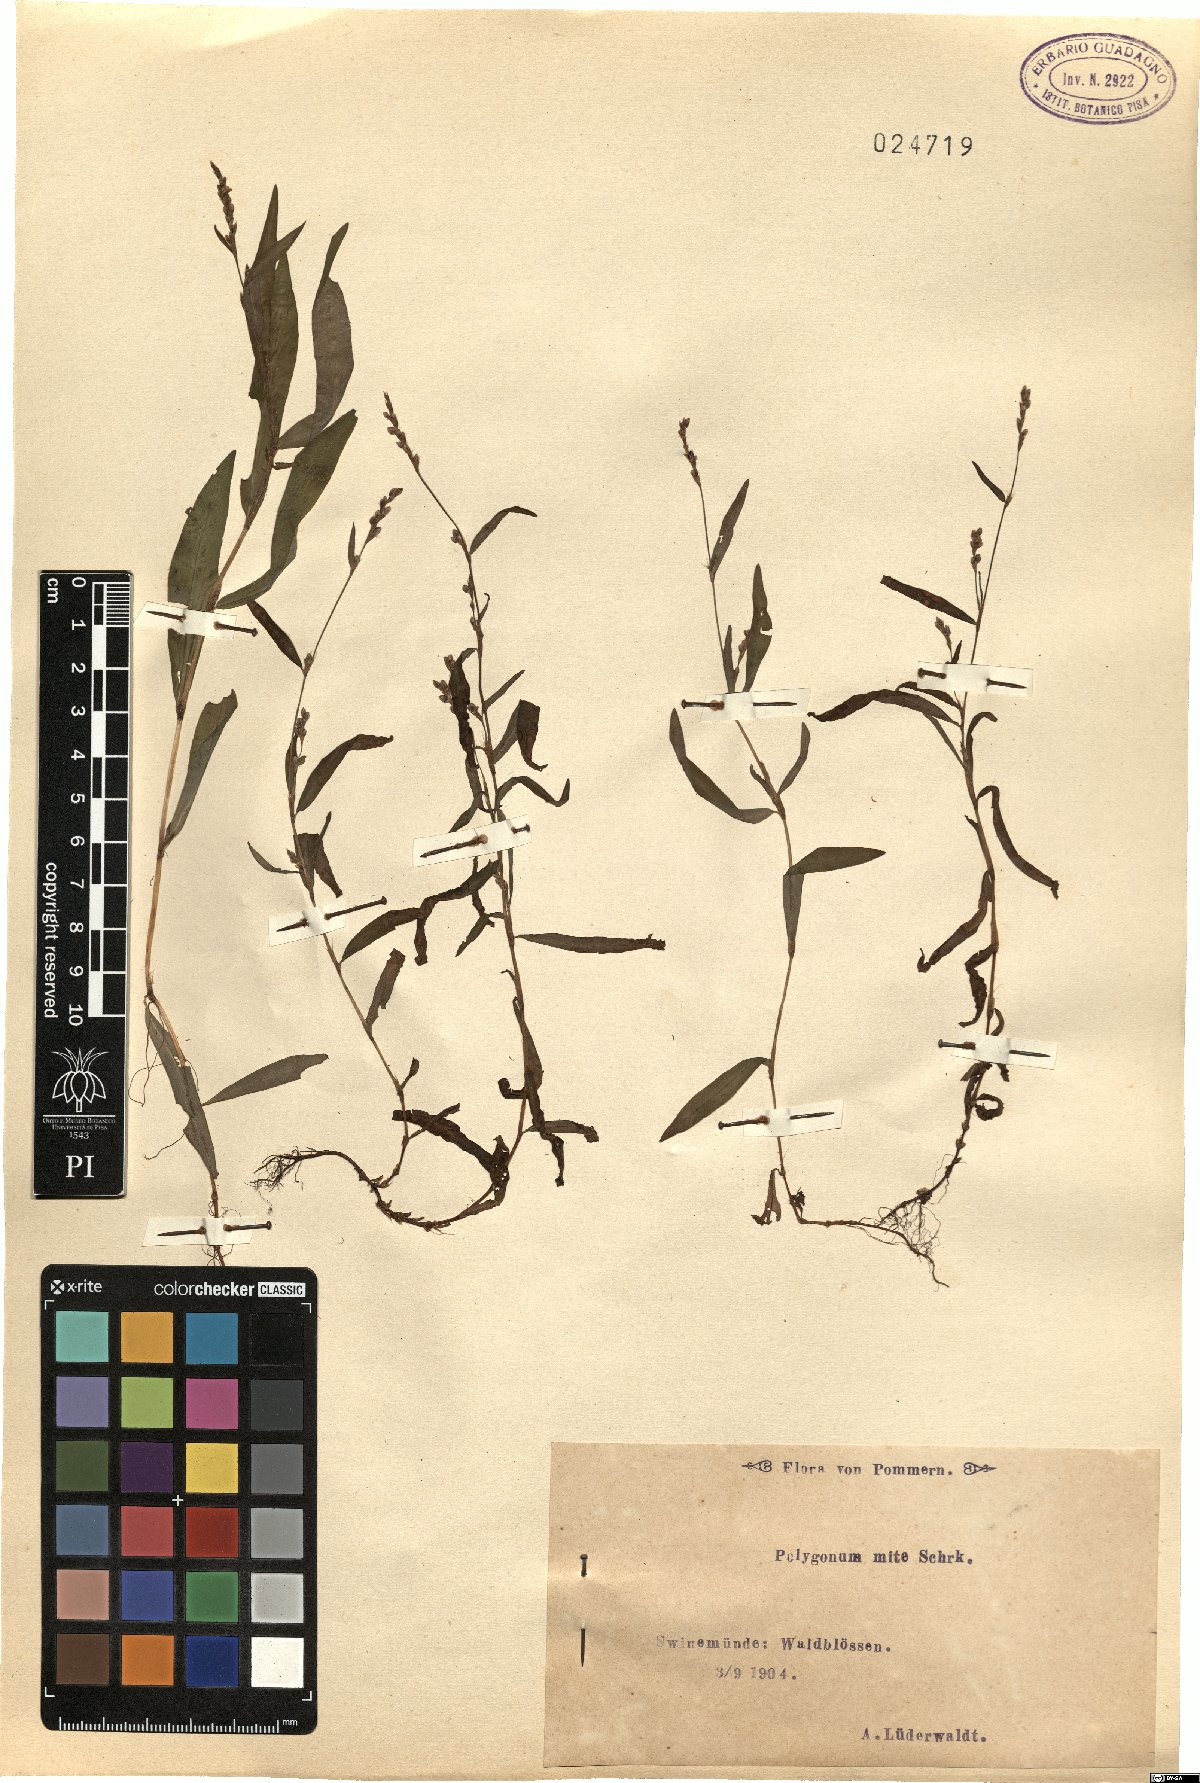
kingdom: Plantae
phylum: Tracheophyta
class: Magnoliopsida
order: Caryophyllales
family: Polygonaceae
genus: Persicaria
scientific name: Persicaria mitis
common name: Tasteless water-pepper
